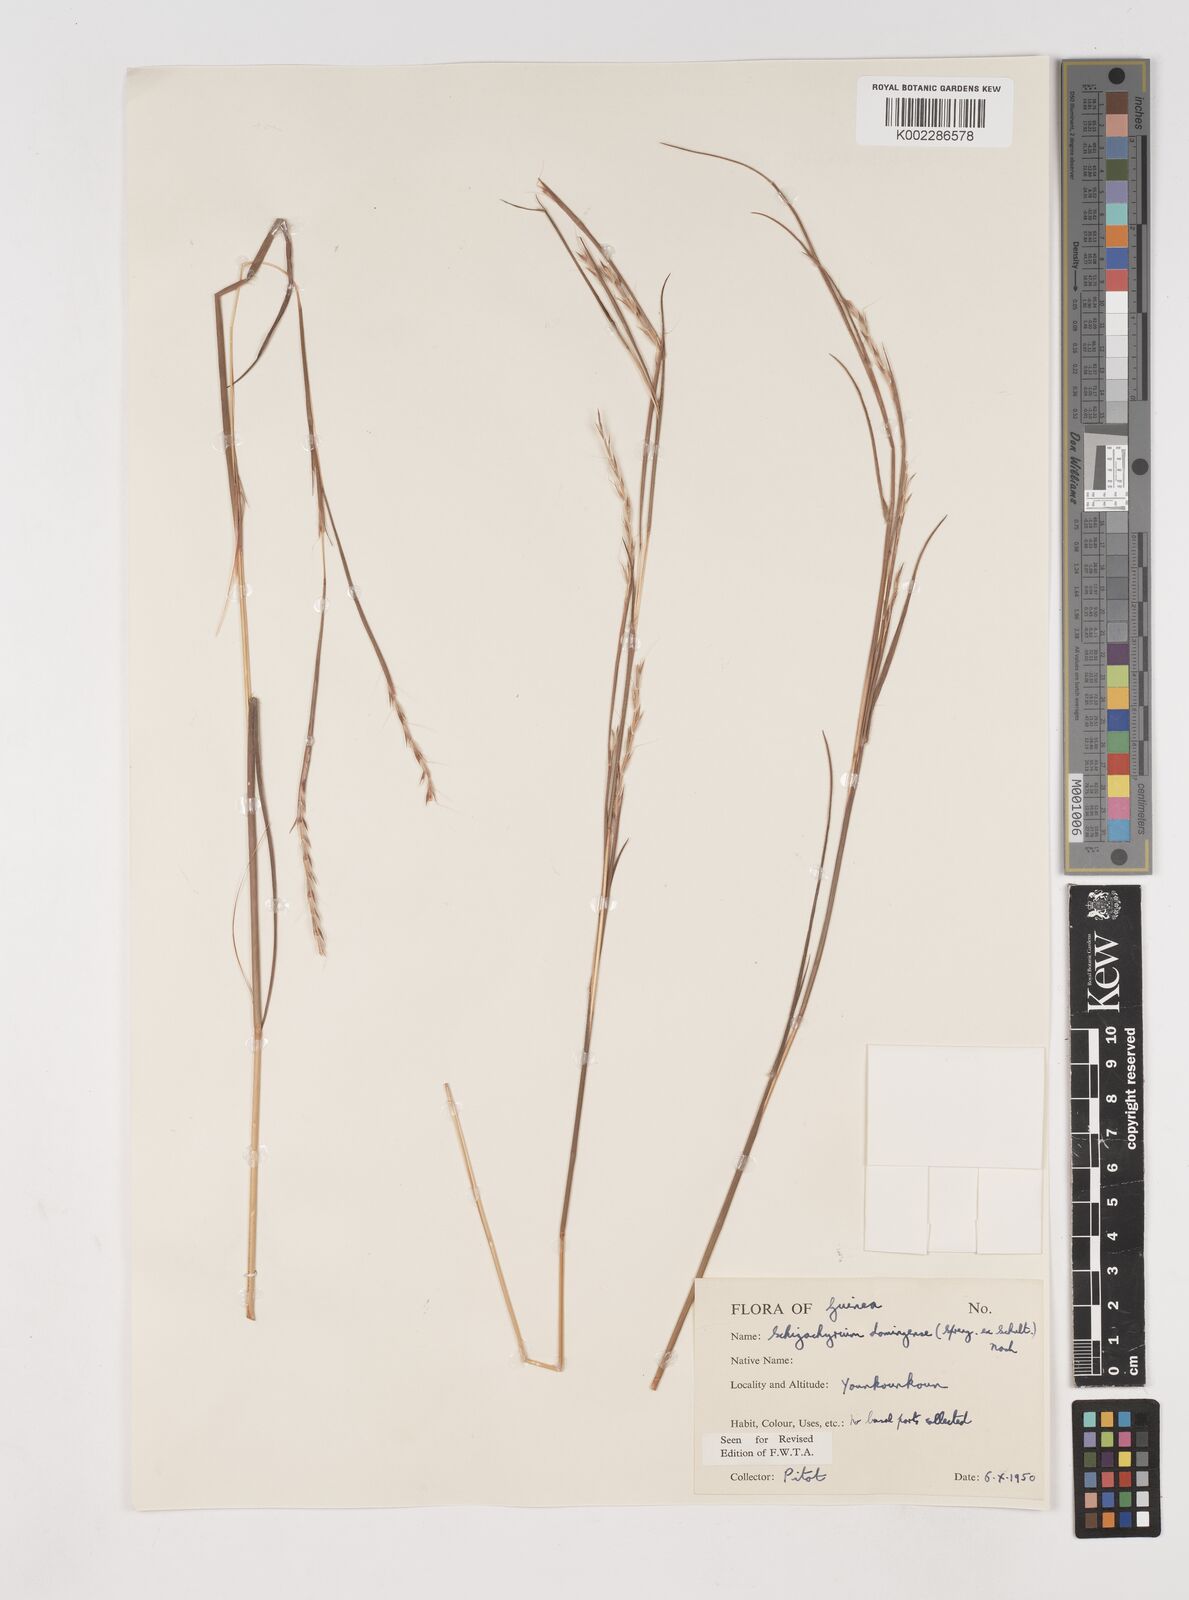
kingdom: Plantae
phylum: Tracheophyta
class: Liliopsida
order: Poales
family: Poaceae
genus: Schizachyrium
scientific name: Schizachyrium sanguineum
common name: Crimson bluestem
